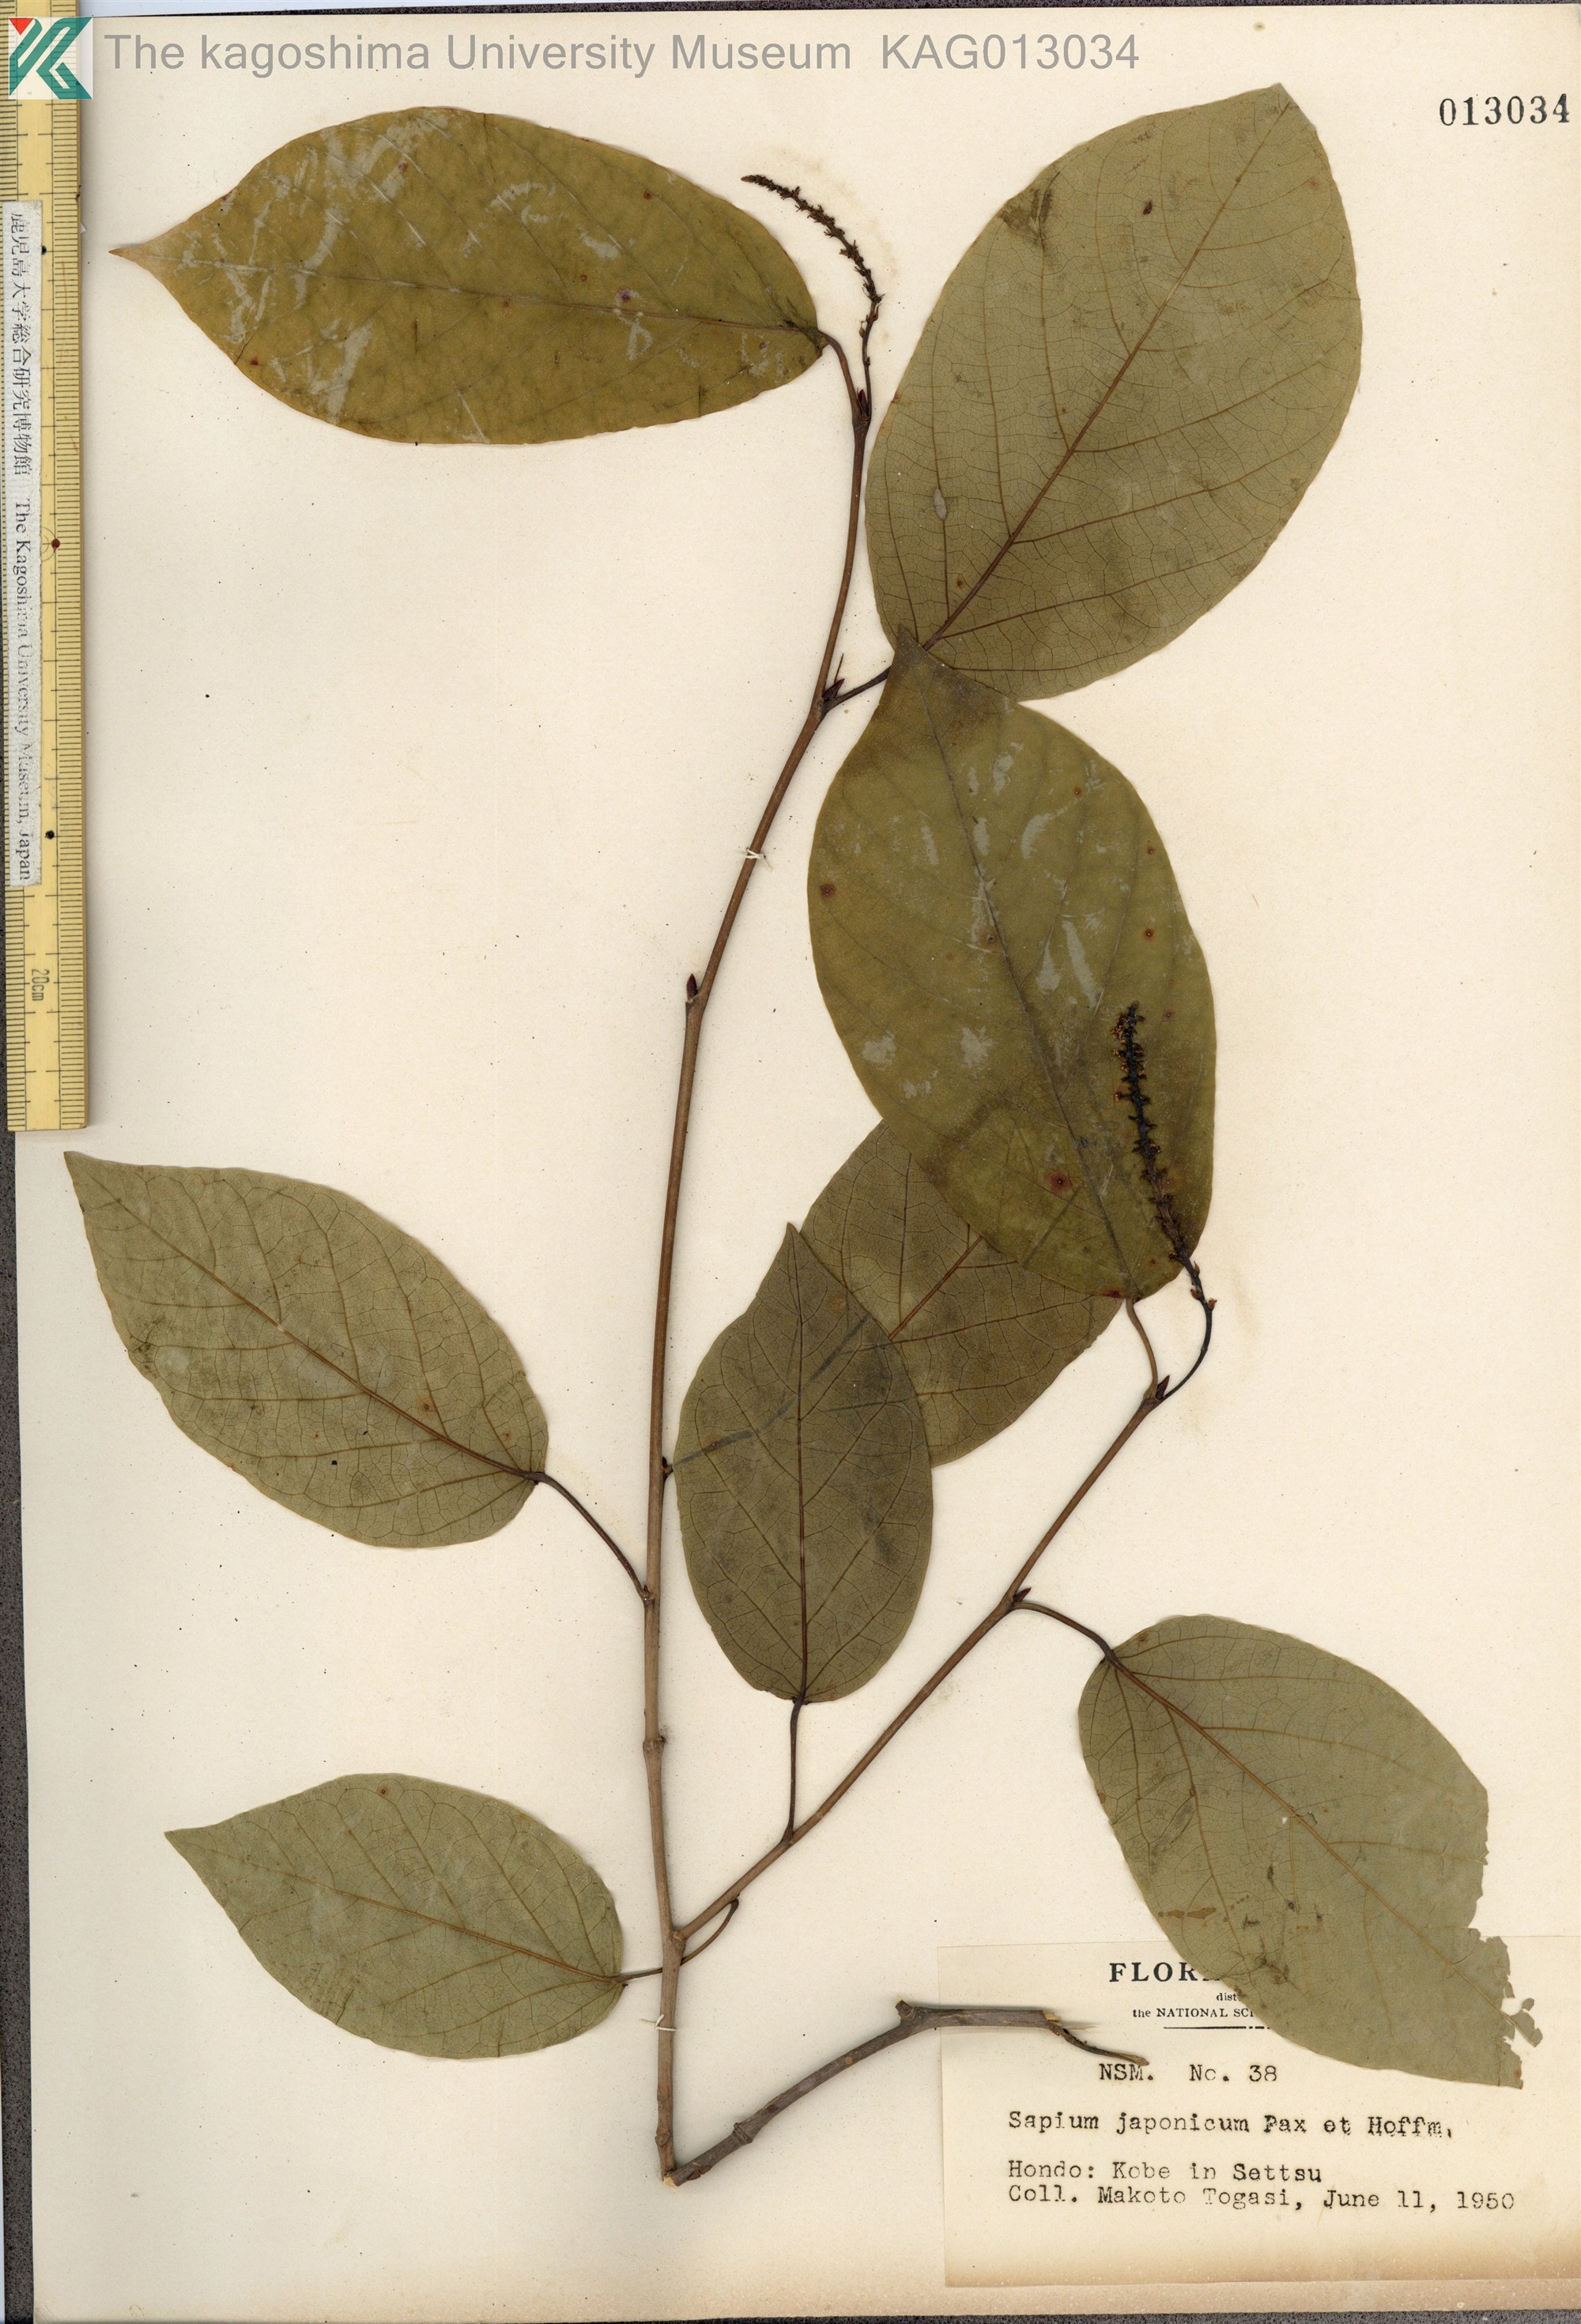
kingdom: Plantae
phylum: Tracheophyta
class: Magnoliopsida
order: Malpighiales
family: Euphorbiaceae
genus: Neoshirakia
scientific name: Neoshirakia japonica
